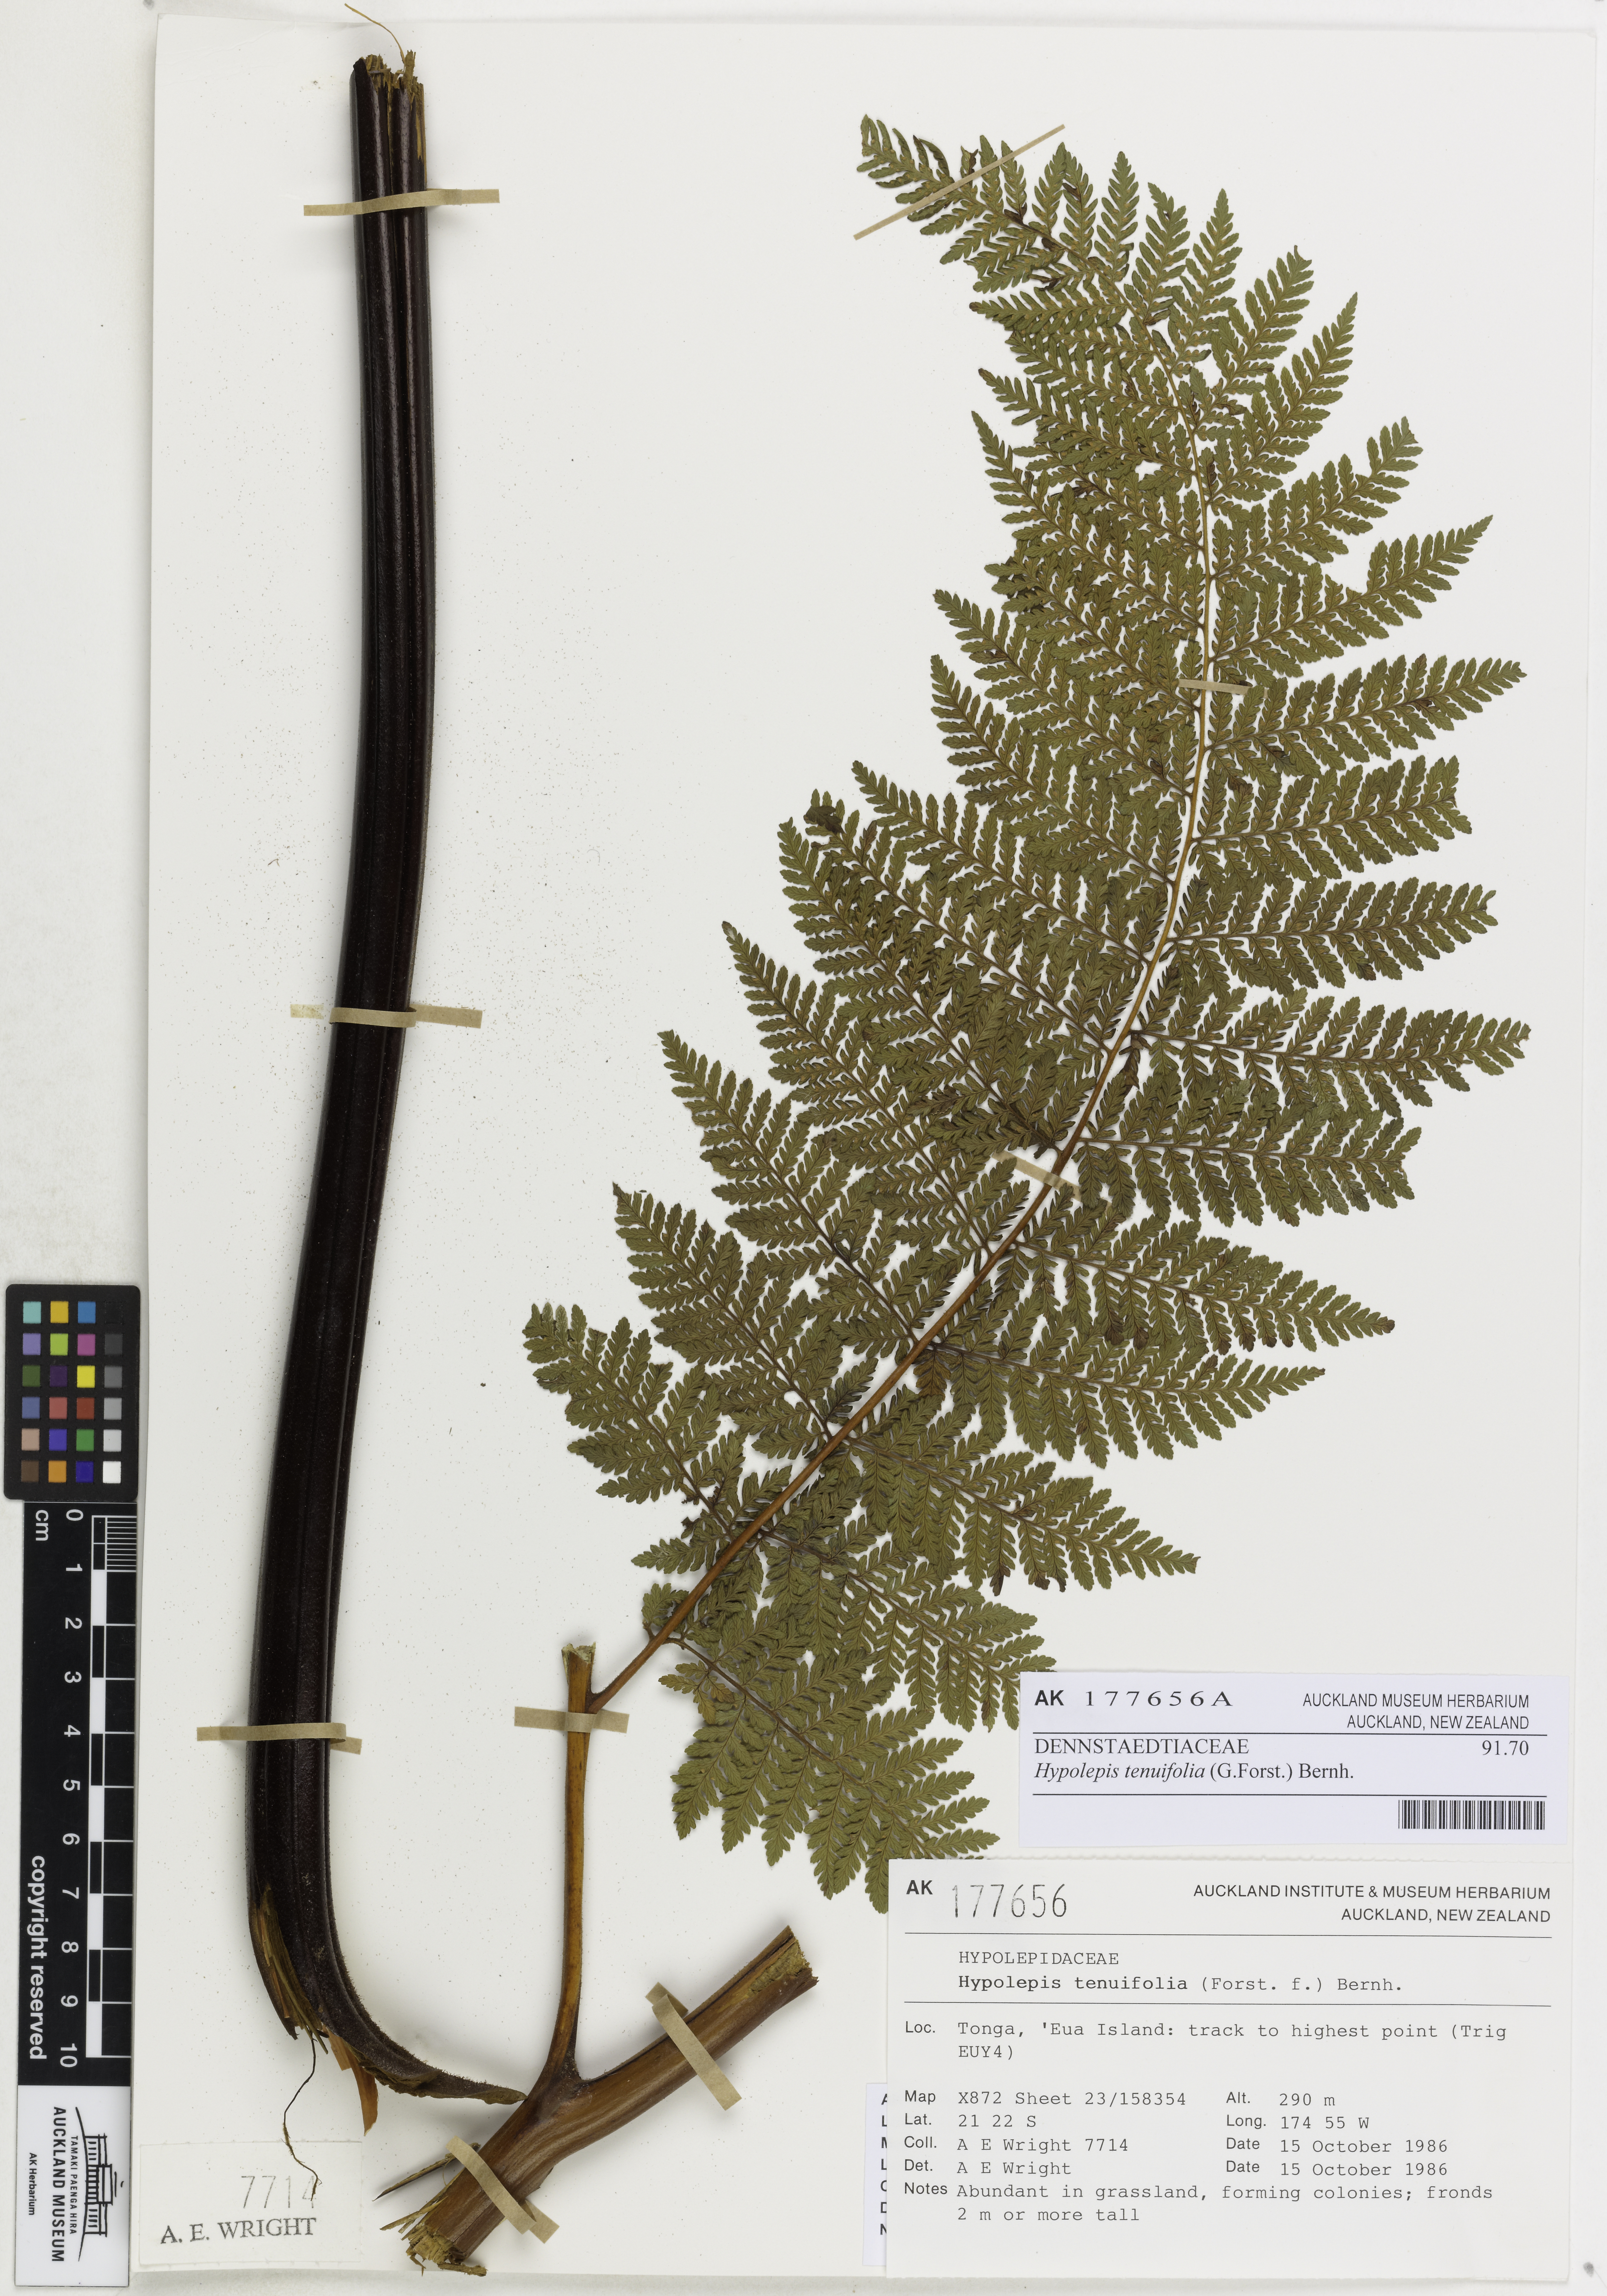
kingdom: Plantae
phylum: Tracheophyta
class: Polypodiopsida
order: Polypodiales
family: Dennstaedtiaceae
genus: Hypolepis
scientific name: Hypolepis tenuifolia
